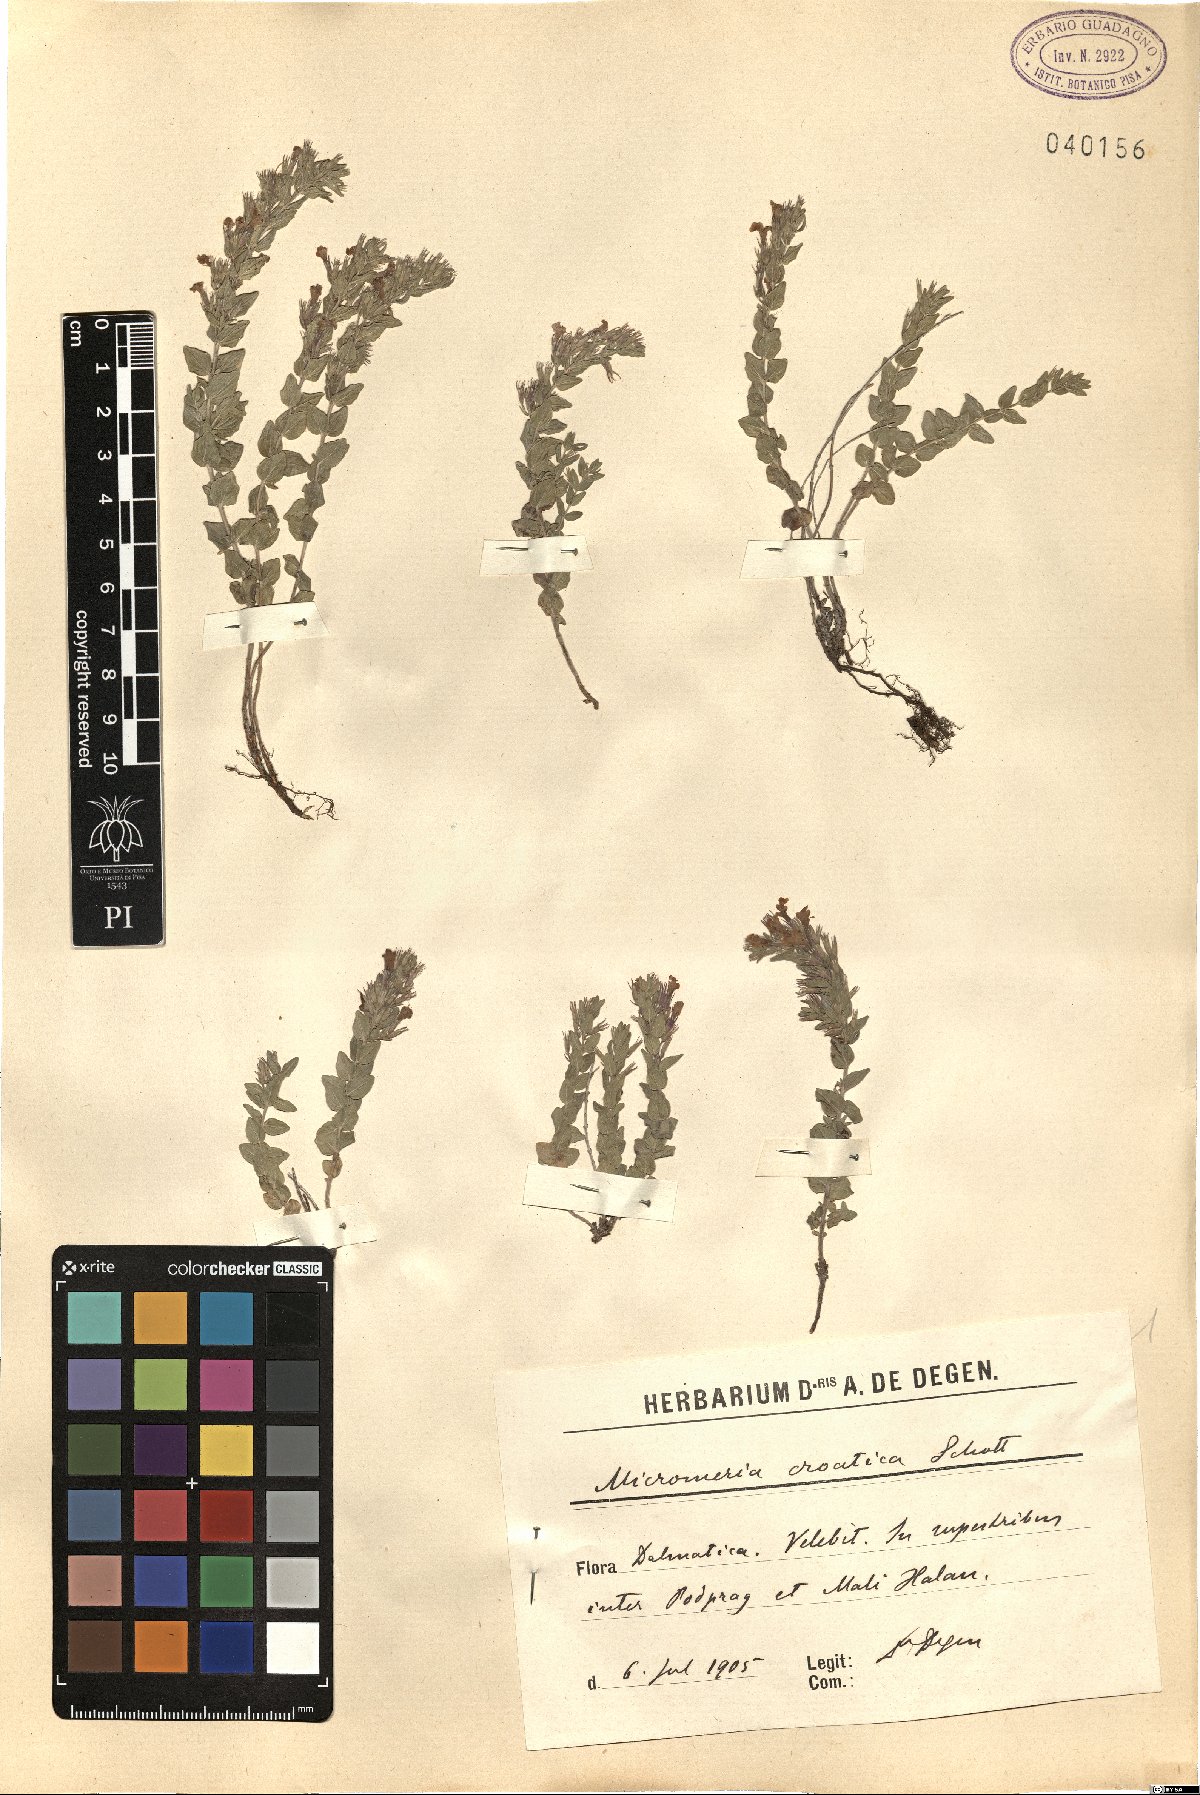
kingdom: Plantae
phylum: Tracheophyta
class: Magnoliopsida
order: Lamiales
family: Lamiaceae
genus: Micromeria
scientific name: Micromeria croatica
